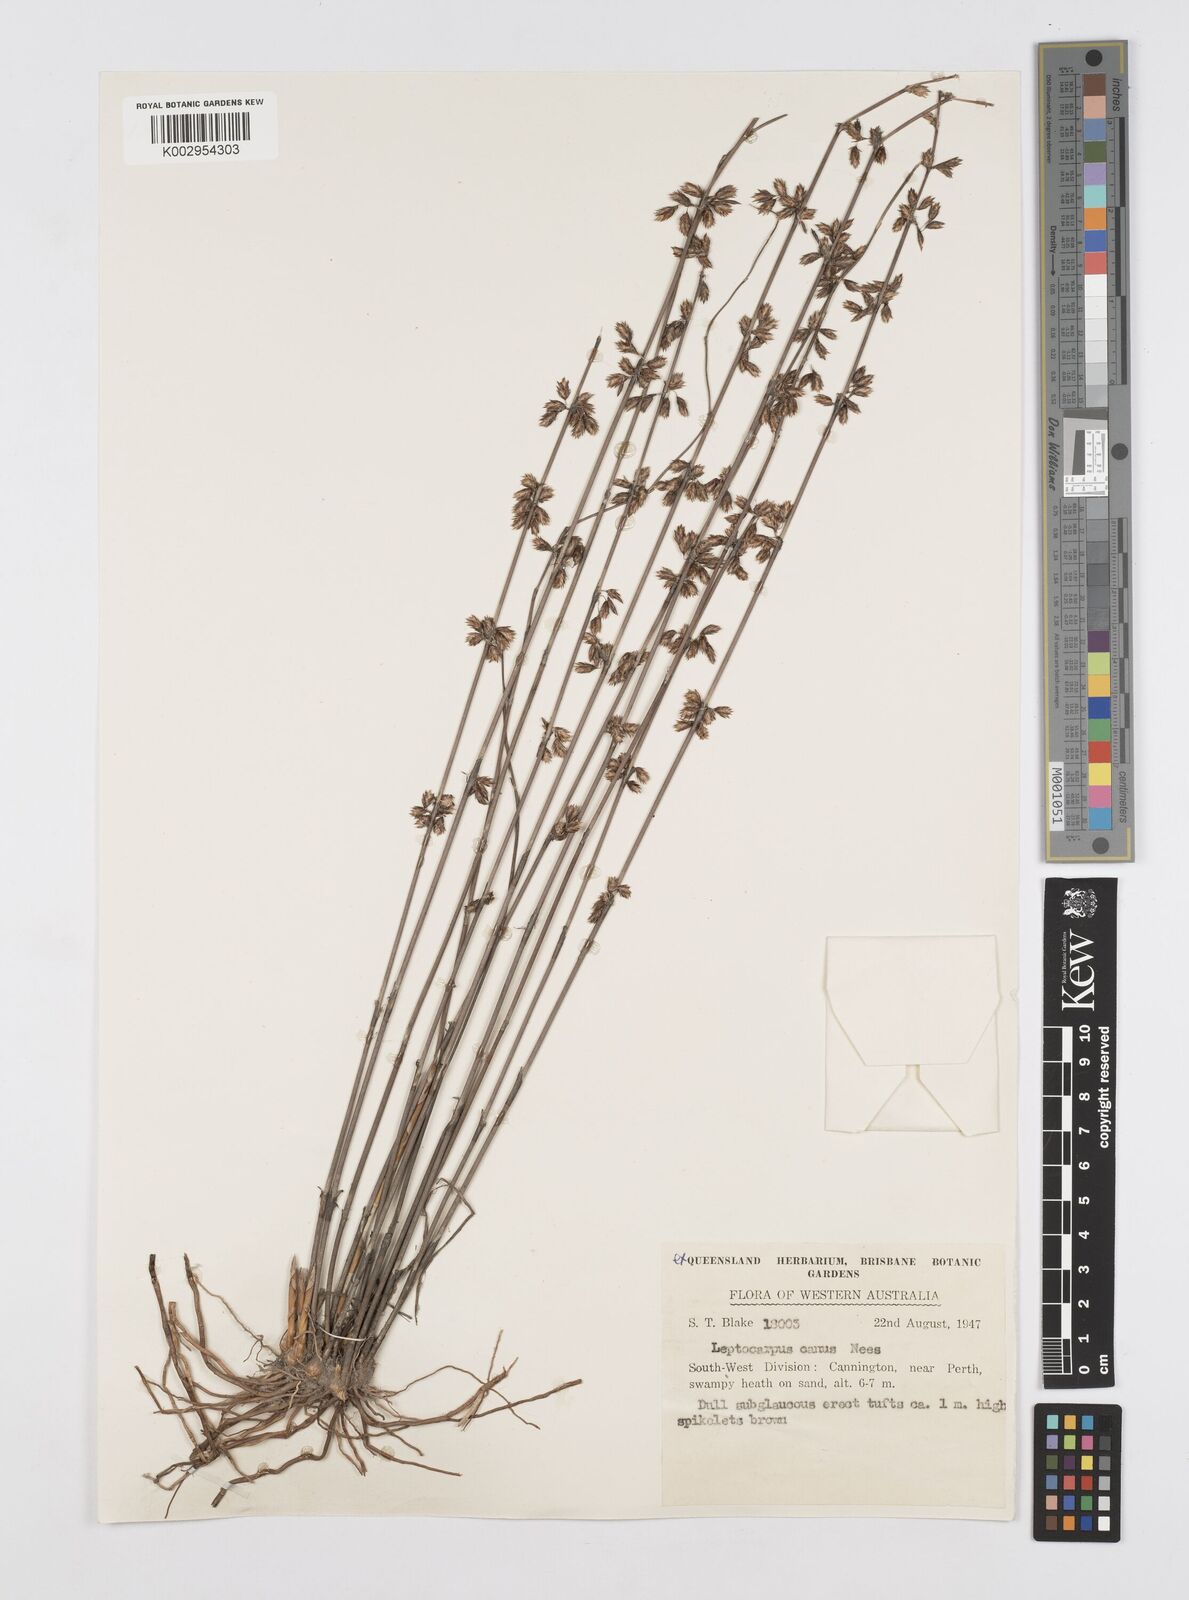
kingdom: Plantae
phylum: Tracheophyta
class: Liliopsida
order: Poales
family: Restionaceae
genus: Leptocarpus
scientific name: Leptocarpus canus
